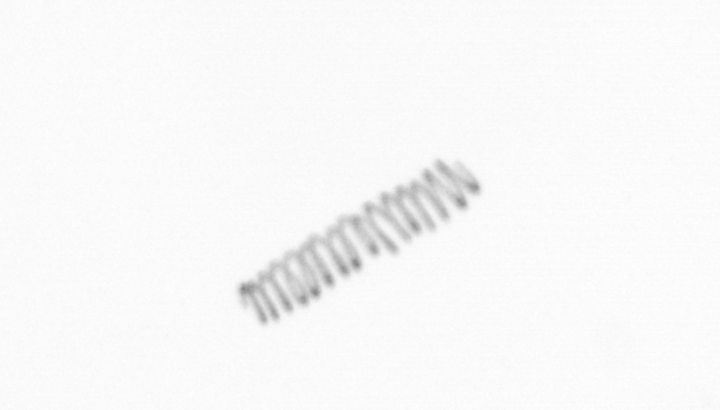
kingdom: Chromista
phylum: Ochrophyta
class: Bacillariophyceae
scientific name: Bacillariophyceae
